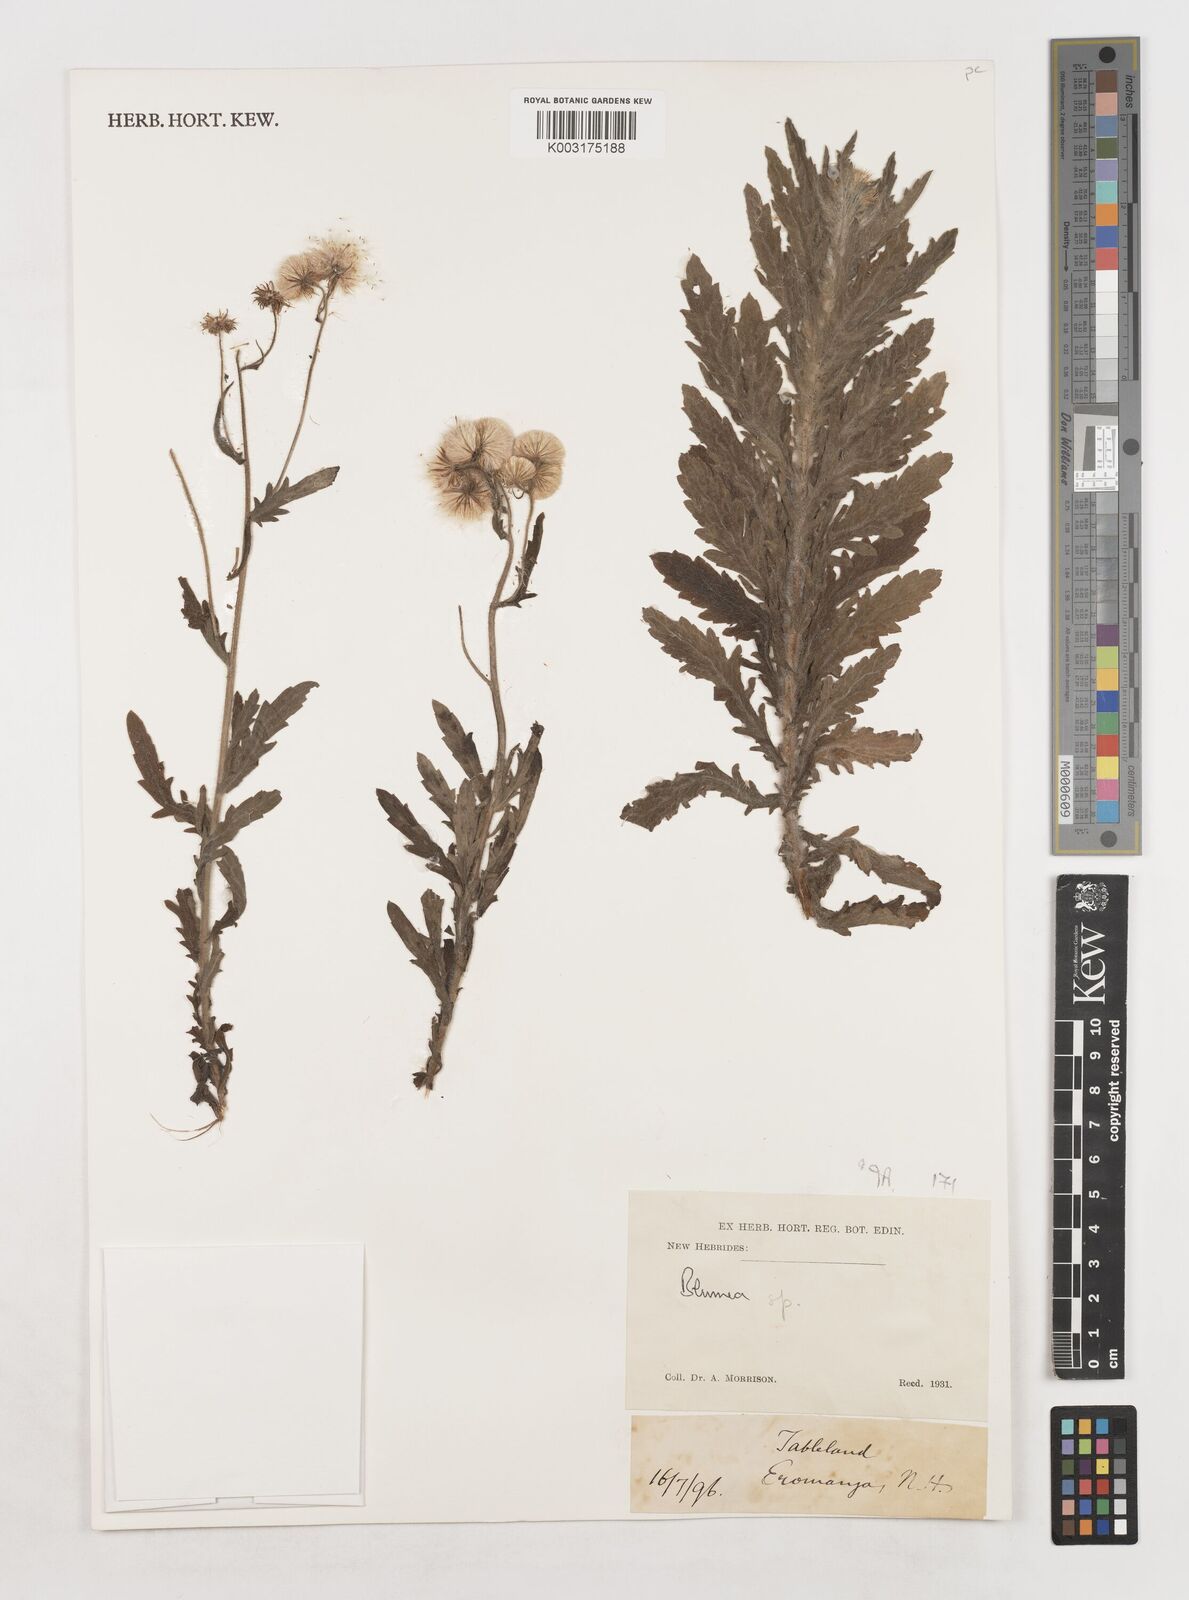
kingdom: Plantae
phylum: Tracheophyta
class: Magnoliopsida
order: Asterales
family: Asteraceae
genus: Blumea
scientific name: Blumea
